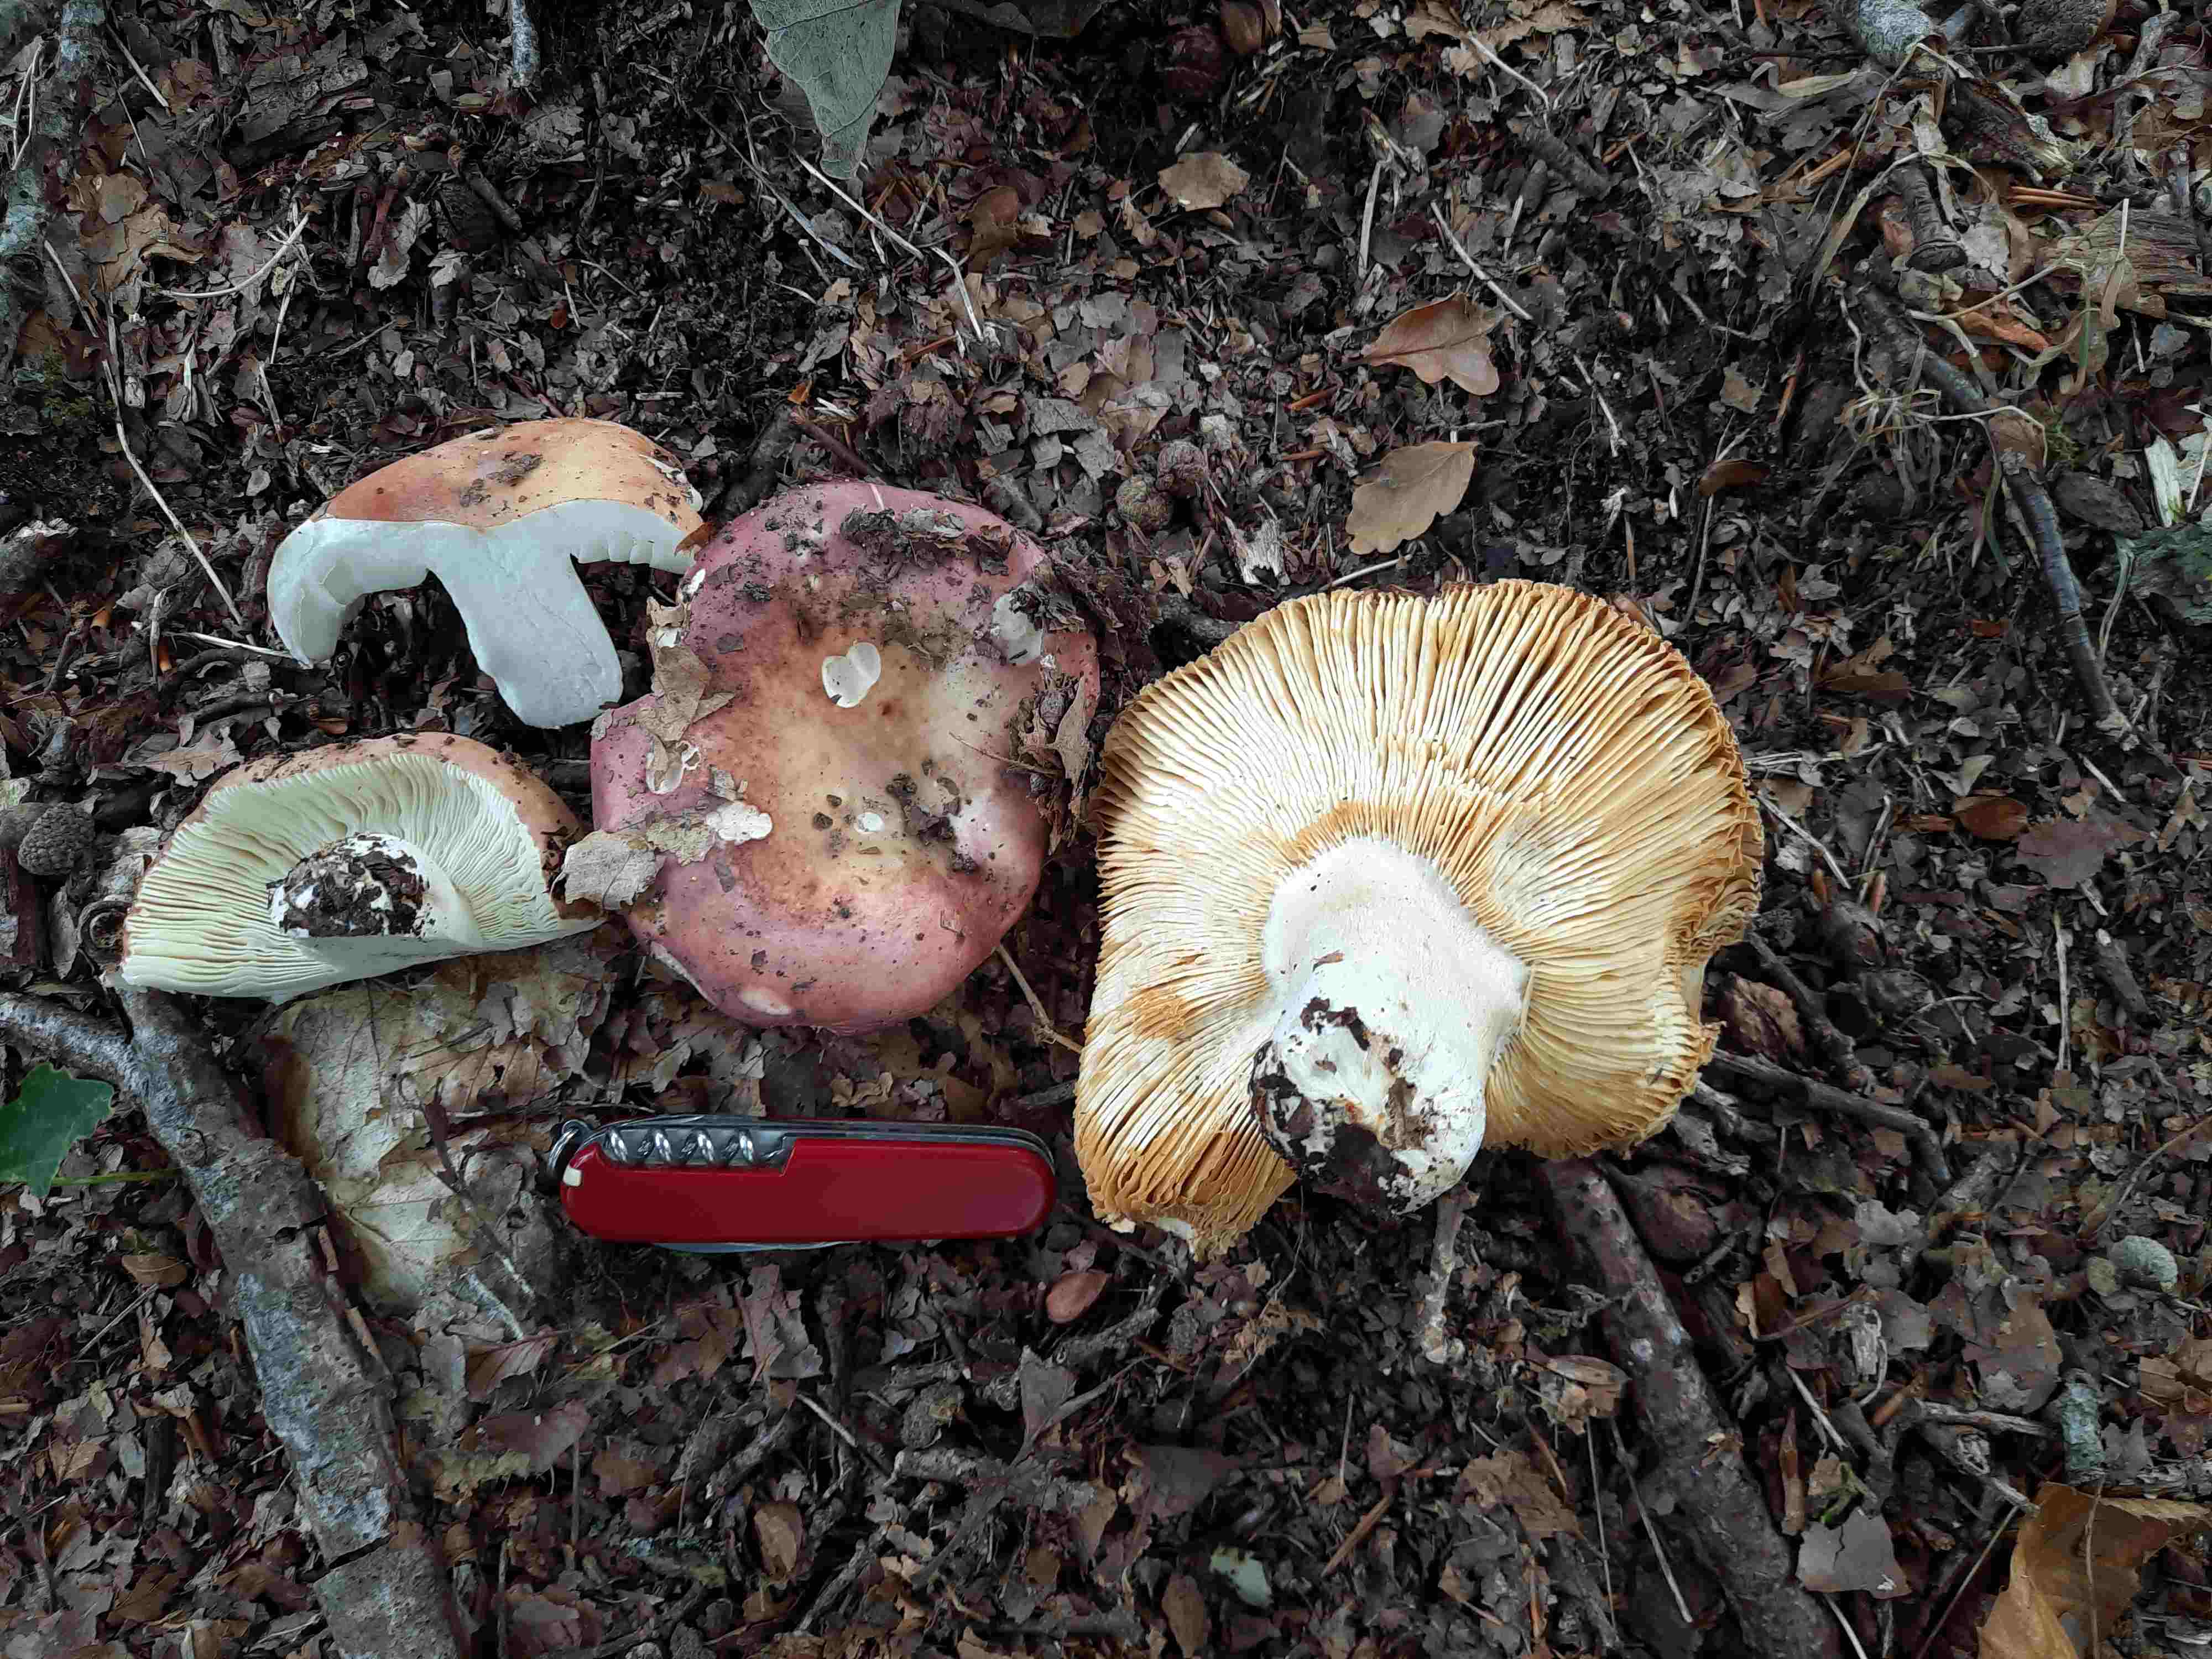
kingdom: Fungi
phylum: Basidiomycota
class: Agaricomycetes
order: Russulales
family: Russulaceae
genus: Russula
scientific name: Russula
